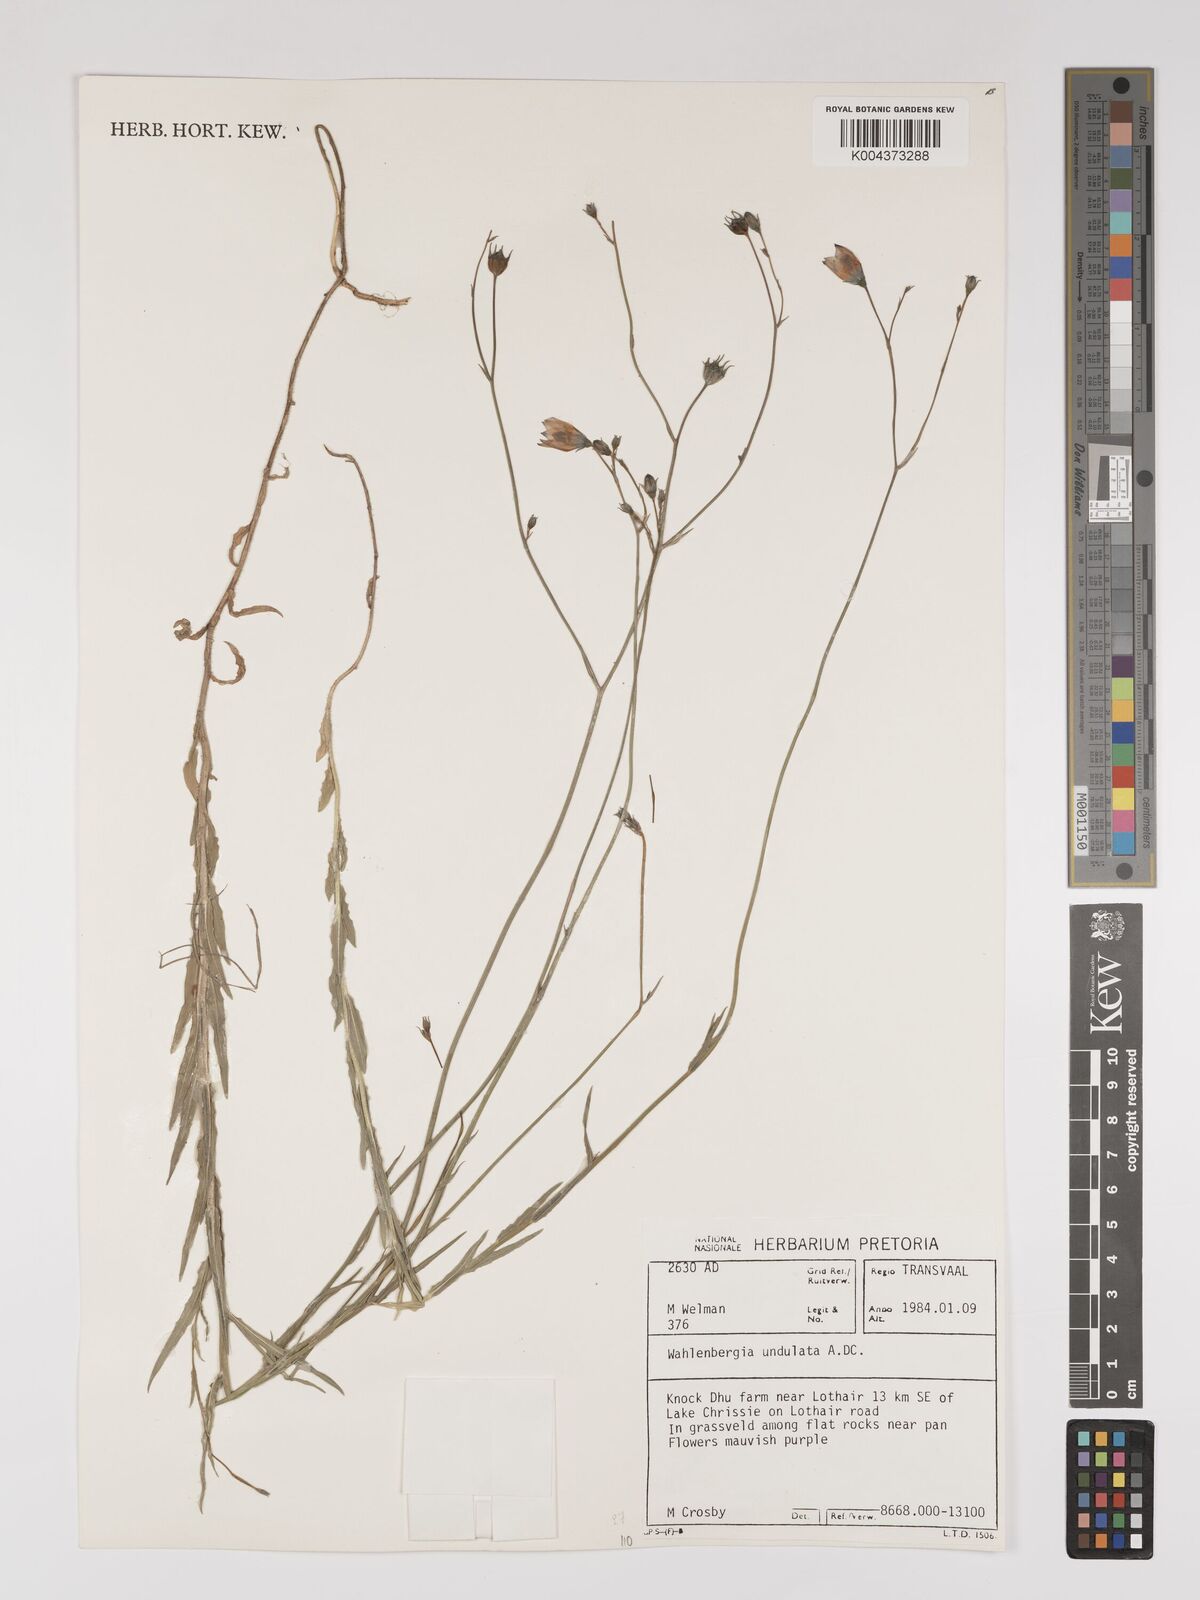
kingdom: Plantae
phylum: Tracheophyta
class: Magnoliopsida
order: Asterales
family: Campanulaceae
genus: Wahlenbergia
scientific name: Wahlenbergia undulata
